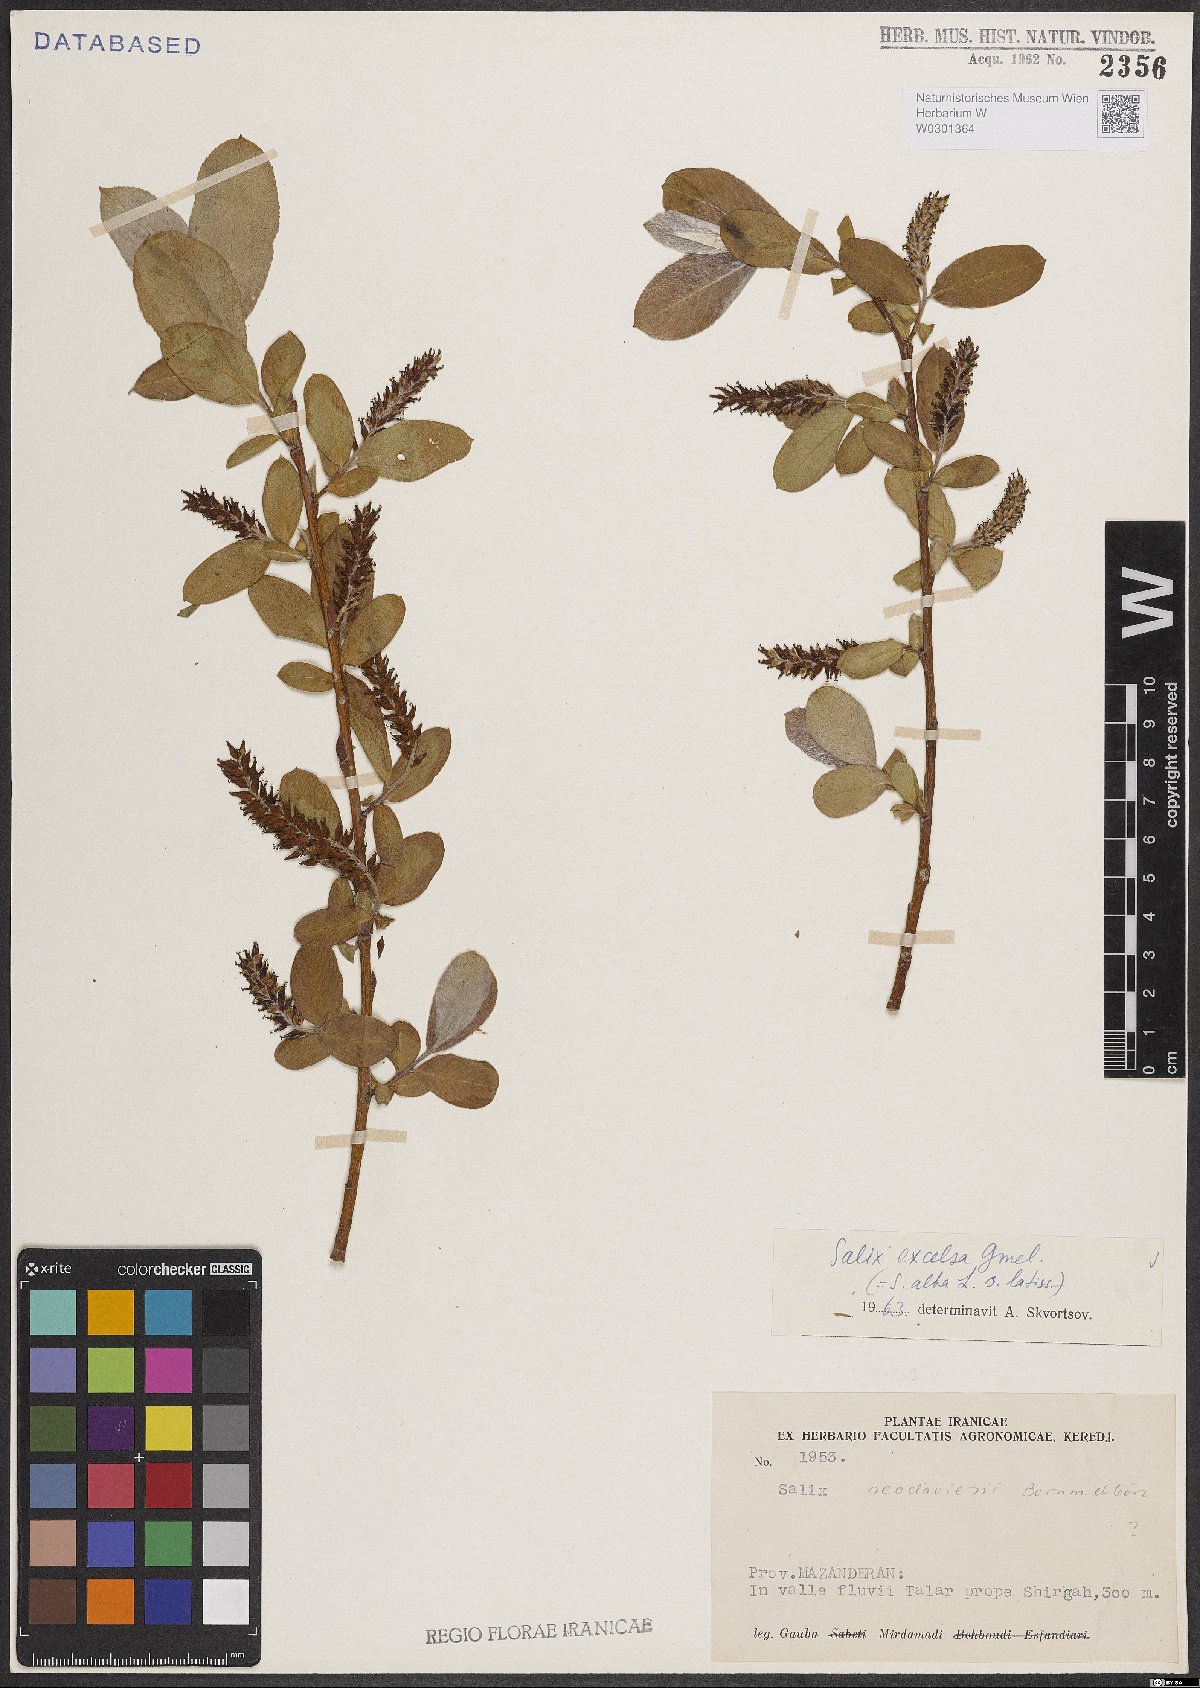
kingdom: Plantae
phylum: Tracheophyta
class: Magnoliopsida
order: Malpighiales
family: Salicaceae
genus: Salix
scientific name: Salix excelsa
